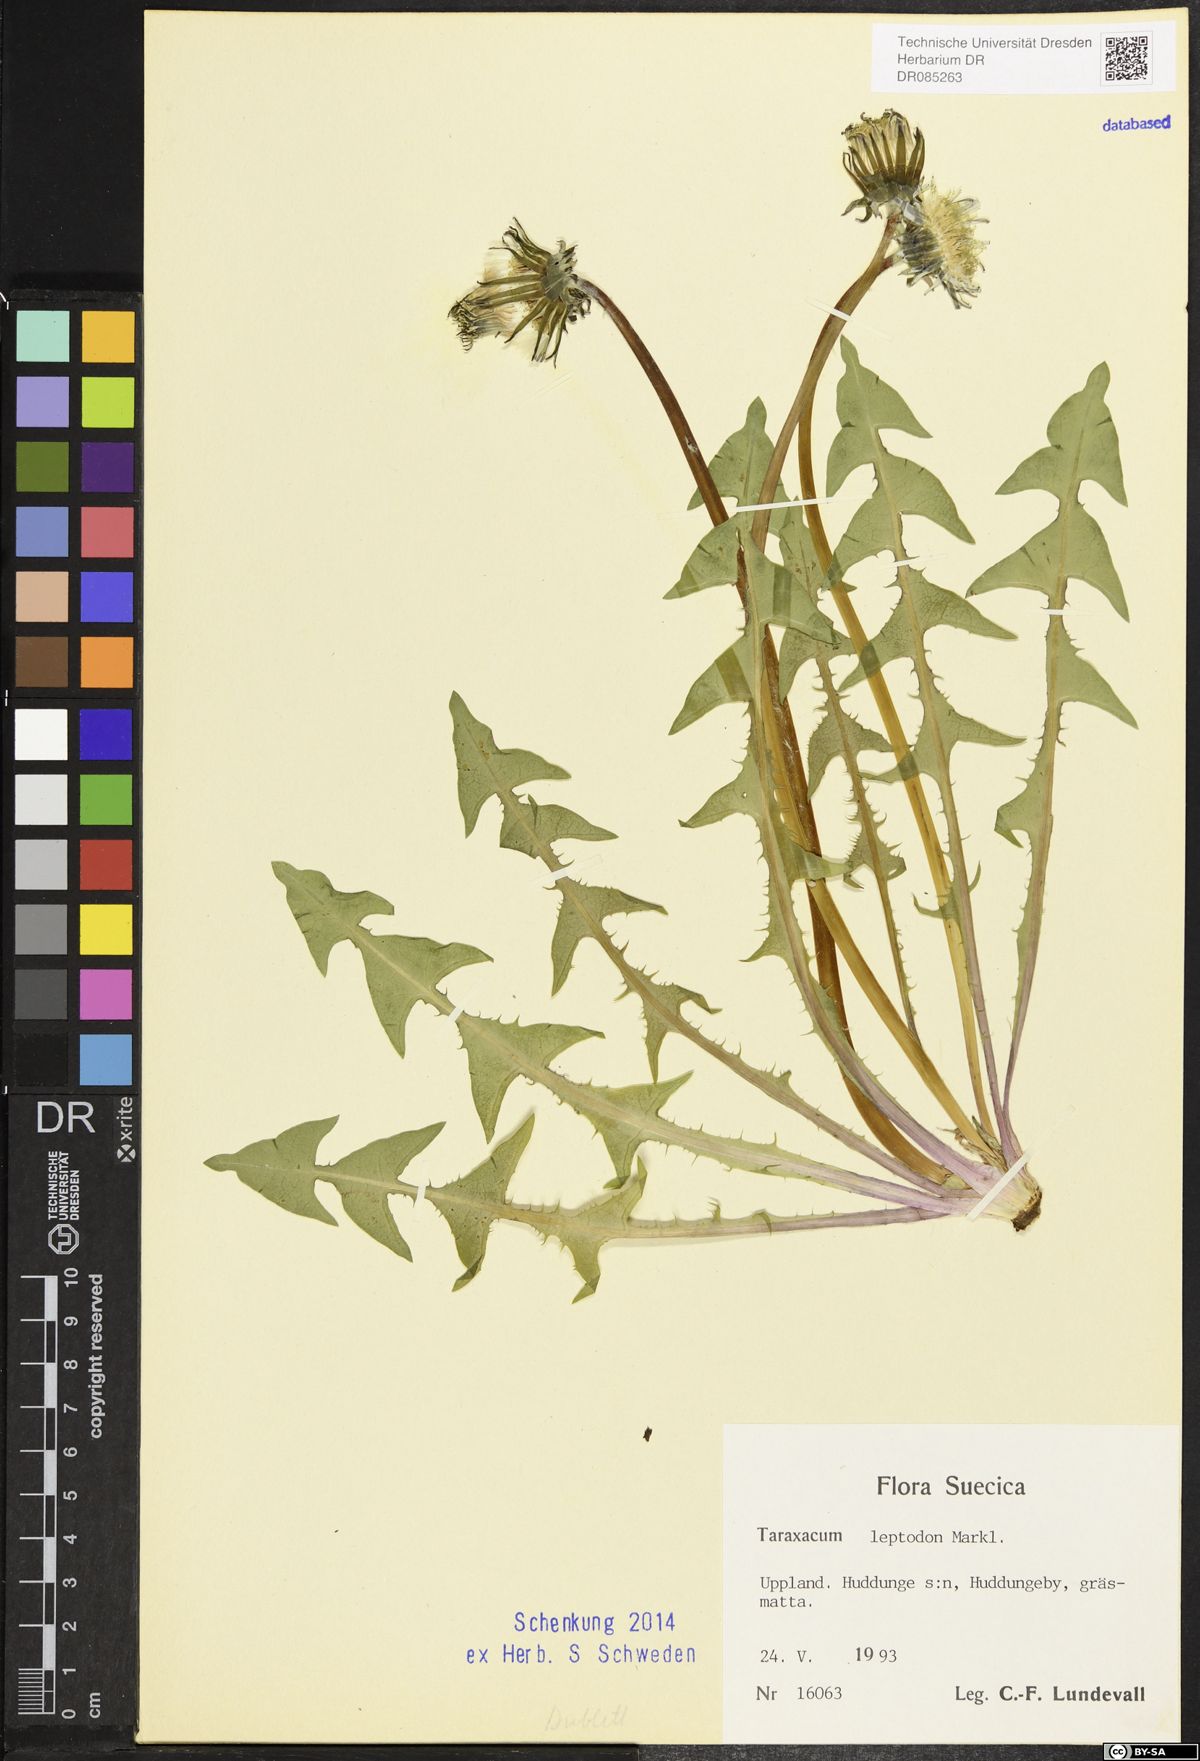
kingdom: Plantae
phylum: Tracheophyta
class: Magnoliopsida
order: Asterales
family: Asteraceae
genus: Taraxacum
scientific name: Taraxacum leptodon
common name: Yellow-styled dandelion
